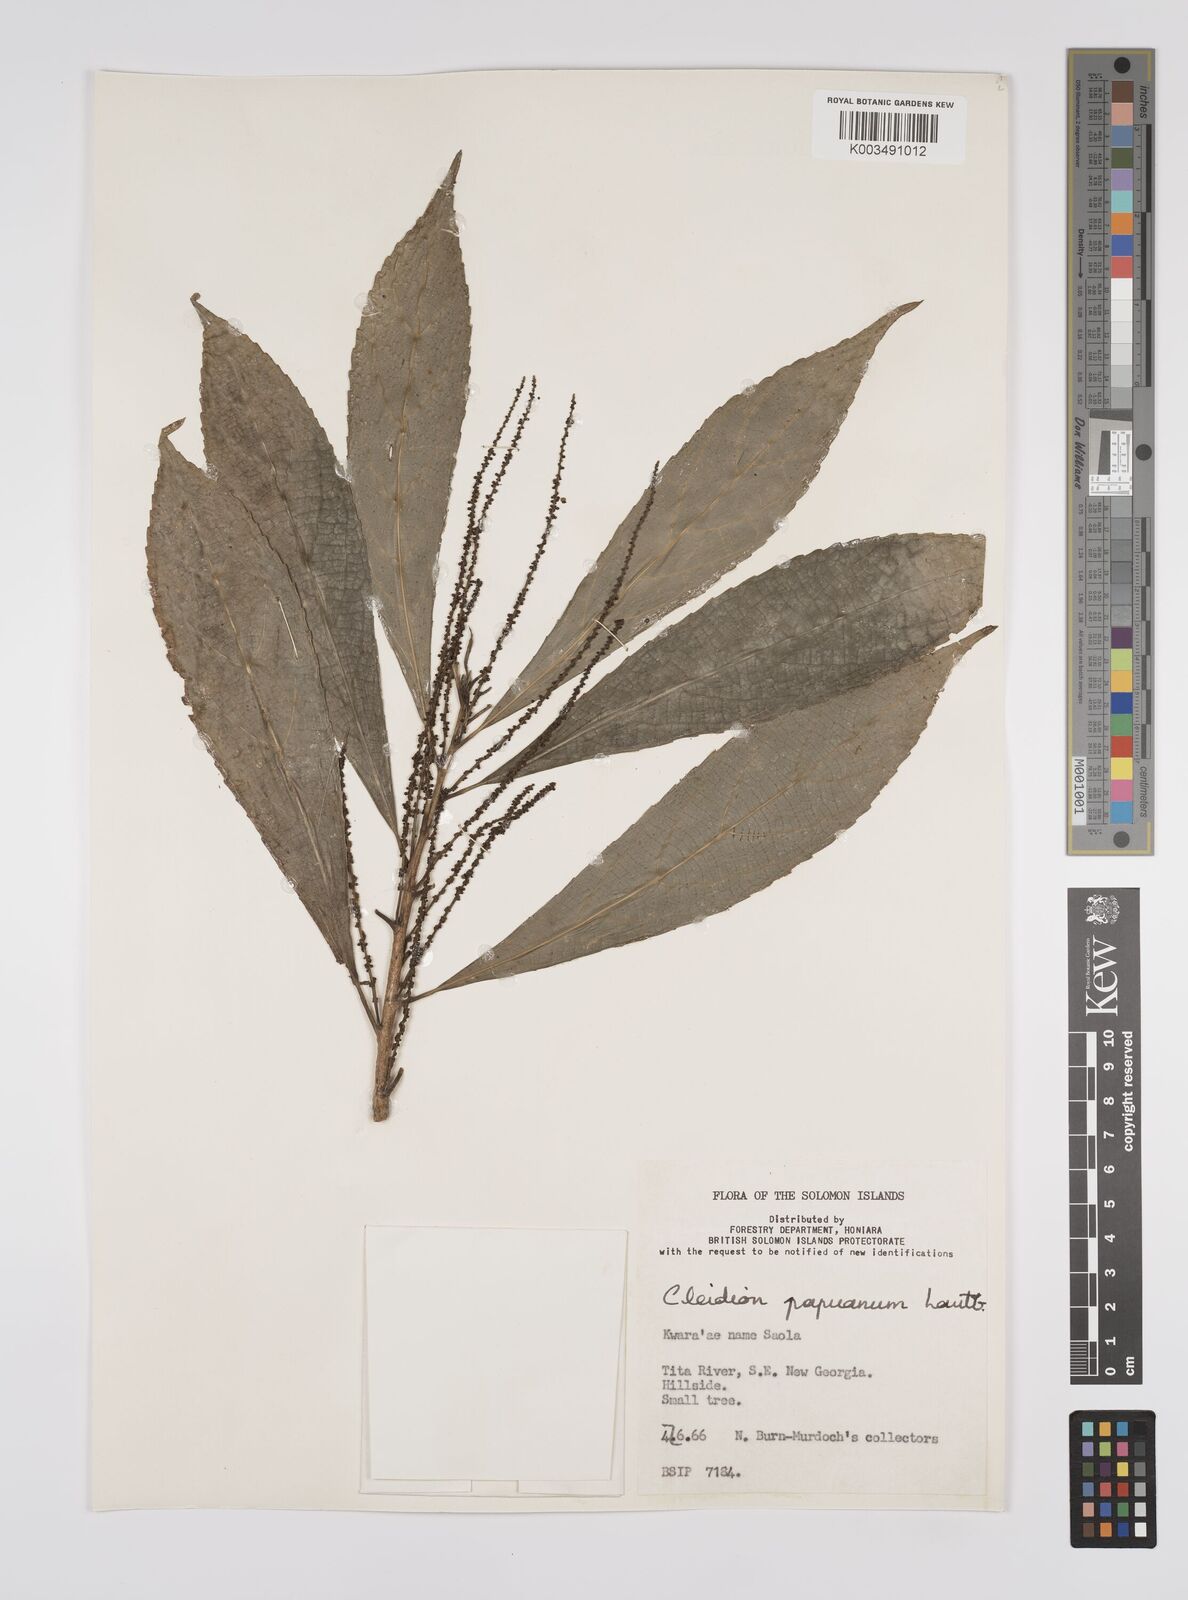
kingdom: Plantae
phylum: Tracheophyta
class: Magnoliopsida
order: Malpighiales
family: Euphorbiaceae
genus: Cleidion
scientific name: Cleidion papuanum
